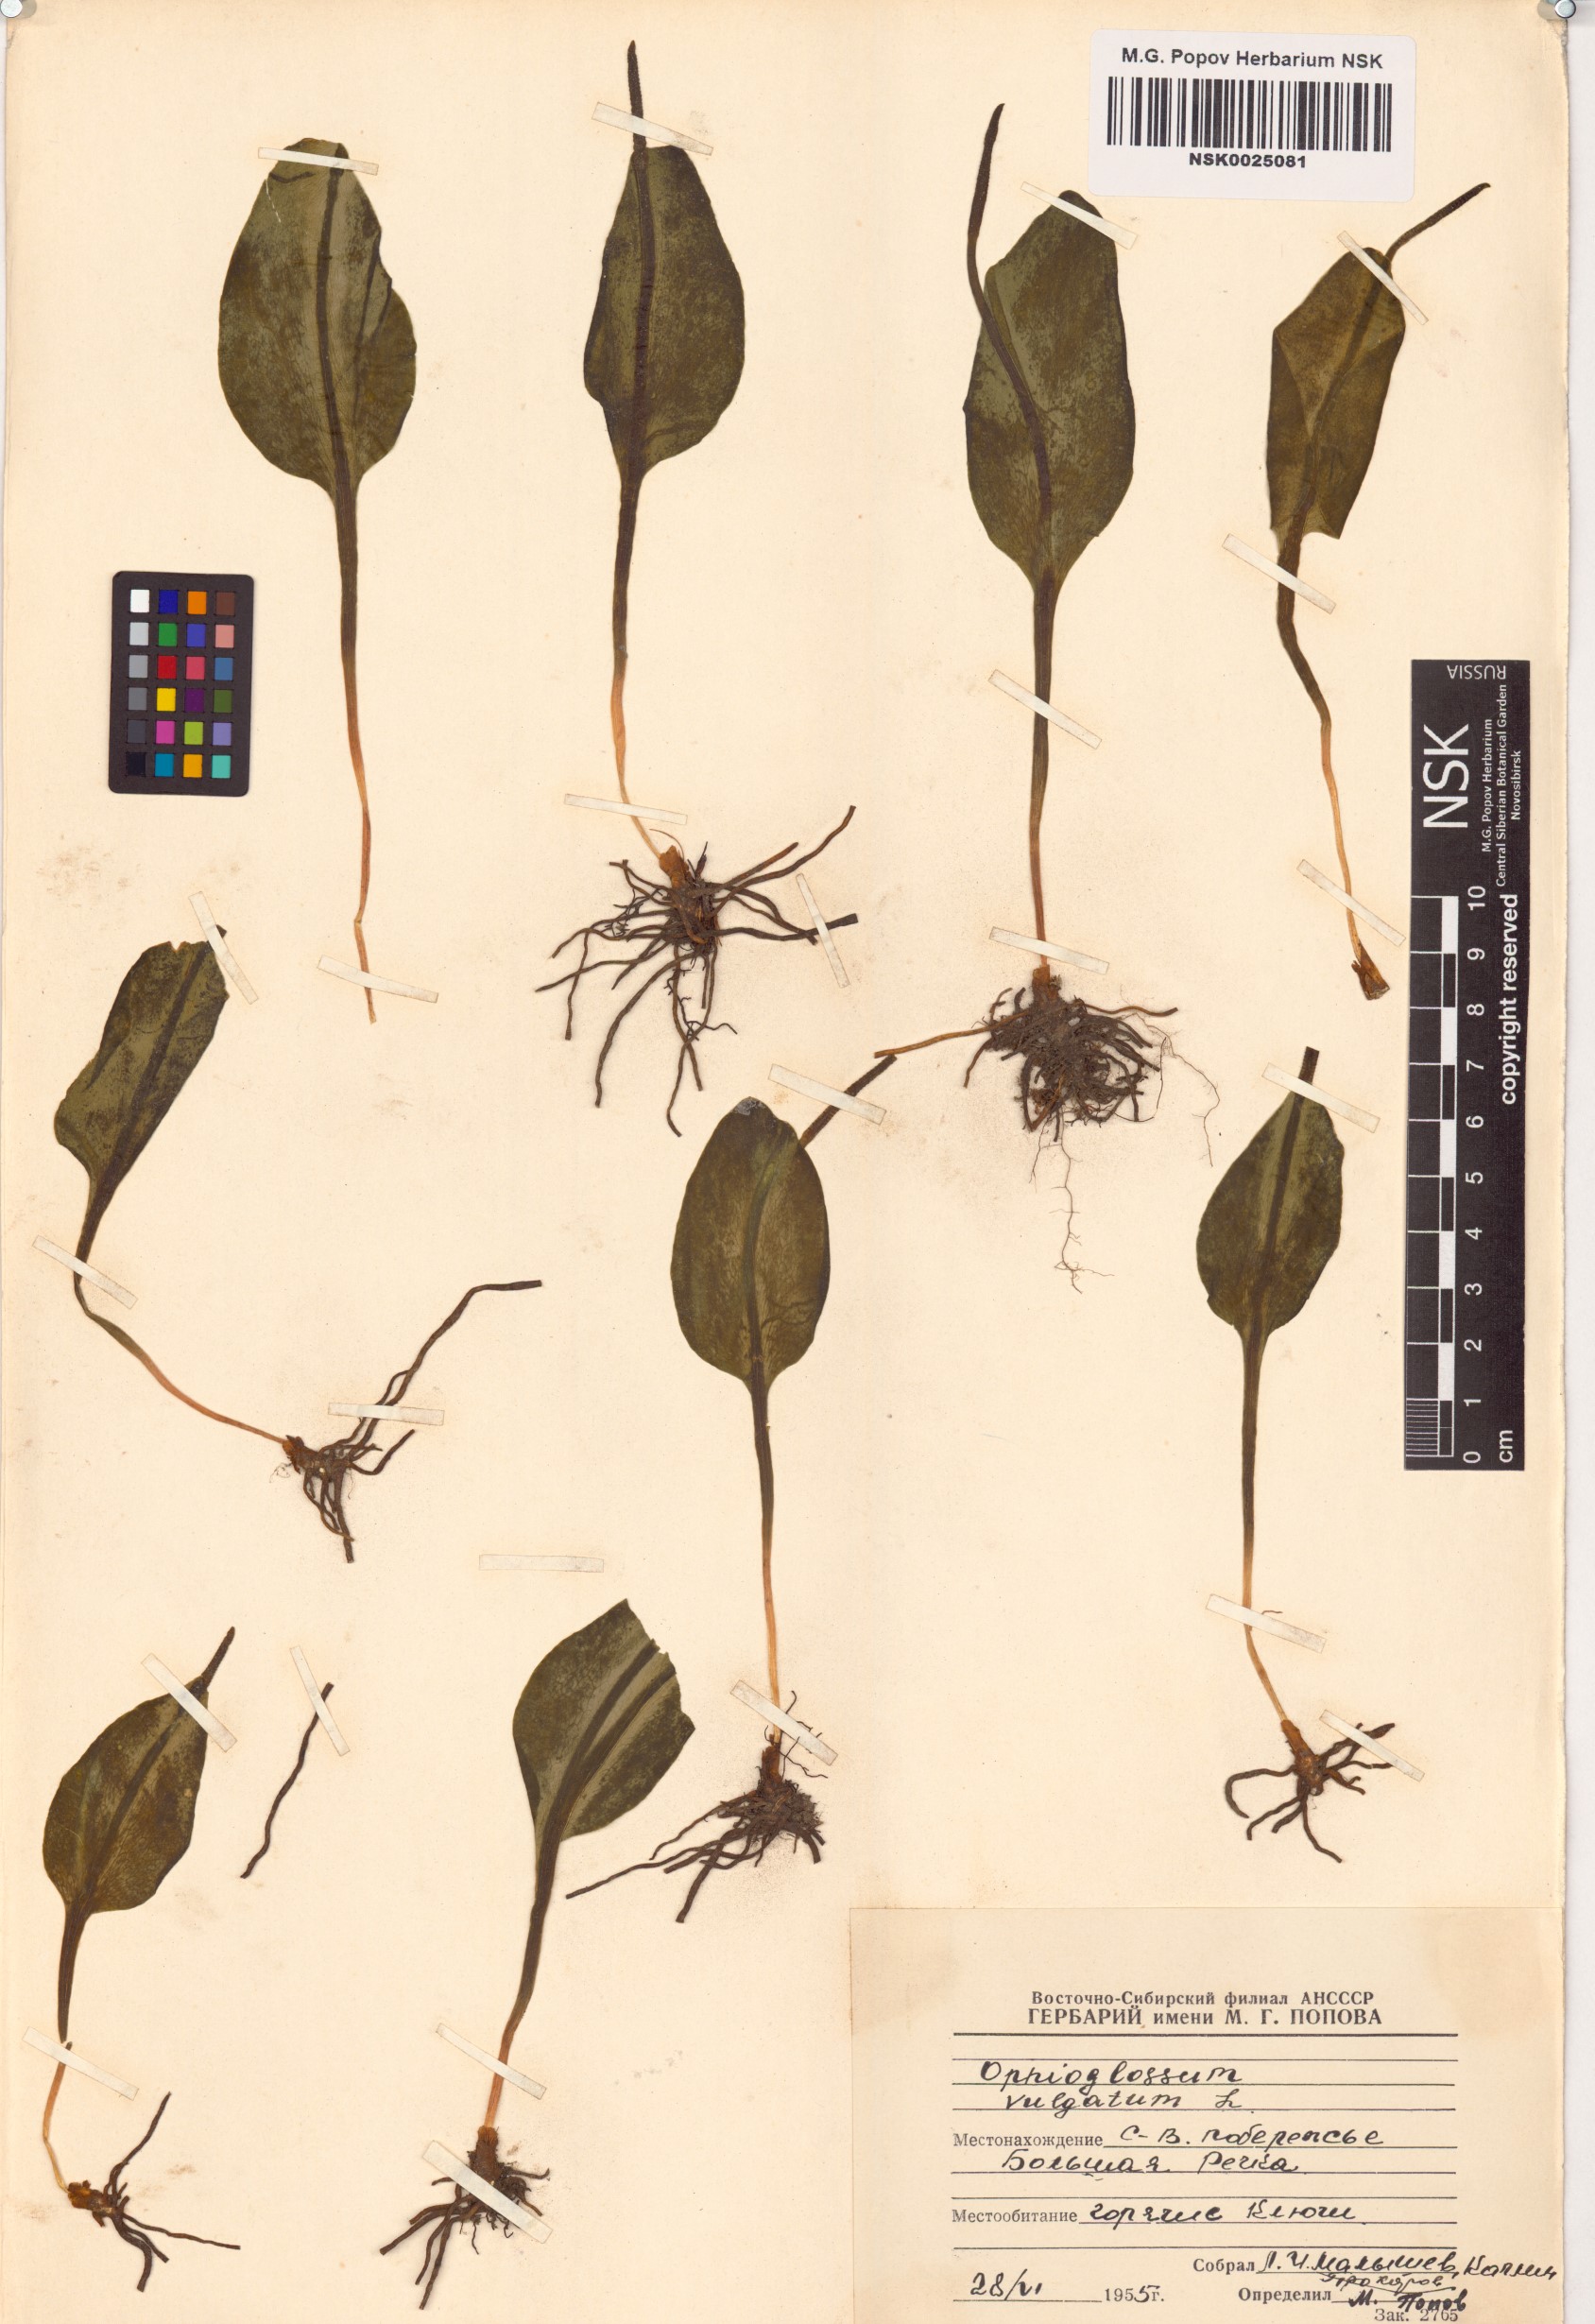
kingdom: Plantae
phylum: Tracheophyta
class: Polypodiopsida
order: Ophioglossales
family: Ophioglossaceae
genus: Ophioglossum
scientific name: Ophioglossum vulgatum
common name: Adder's-tongue
